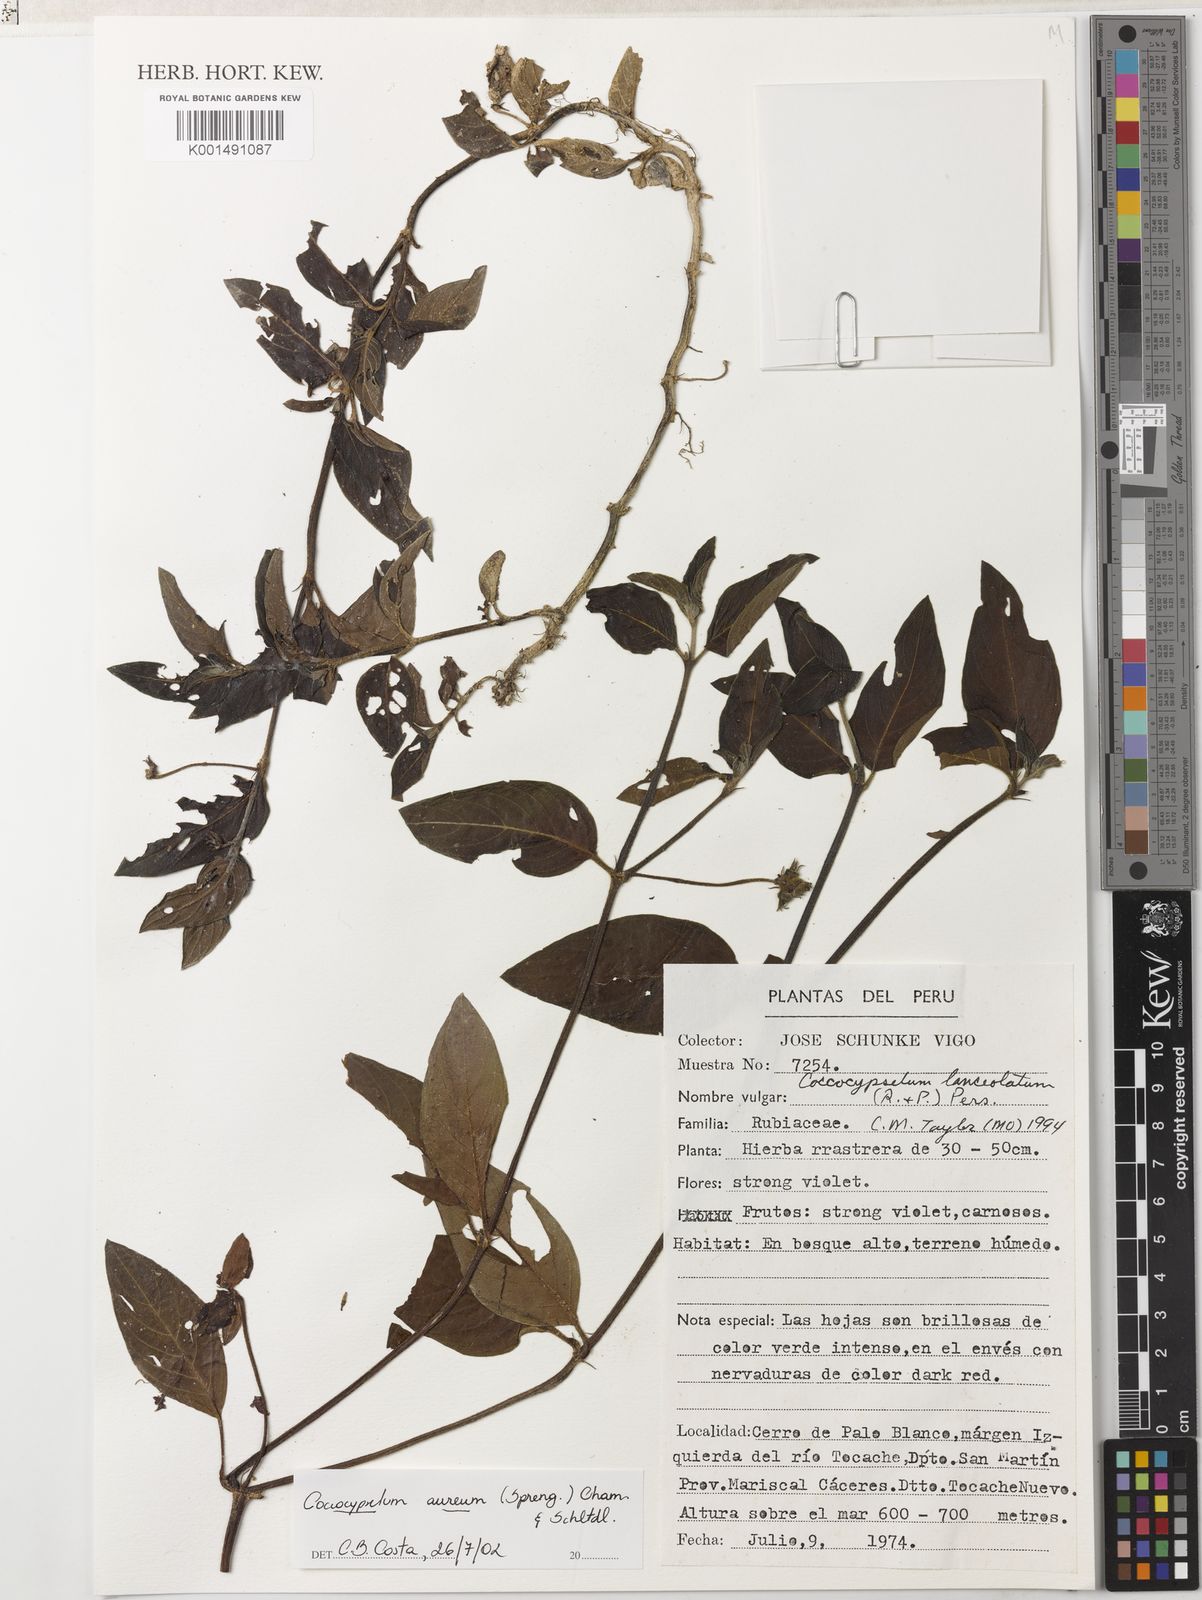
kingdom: Plantae
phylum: Tracheophyta
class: Magnoliopsida
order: Gentianales
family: Rubiaceae
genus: Coccocypselum
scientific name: Coccocypselum aureum
